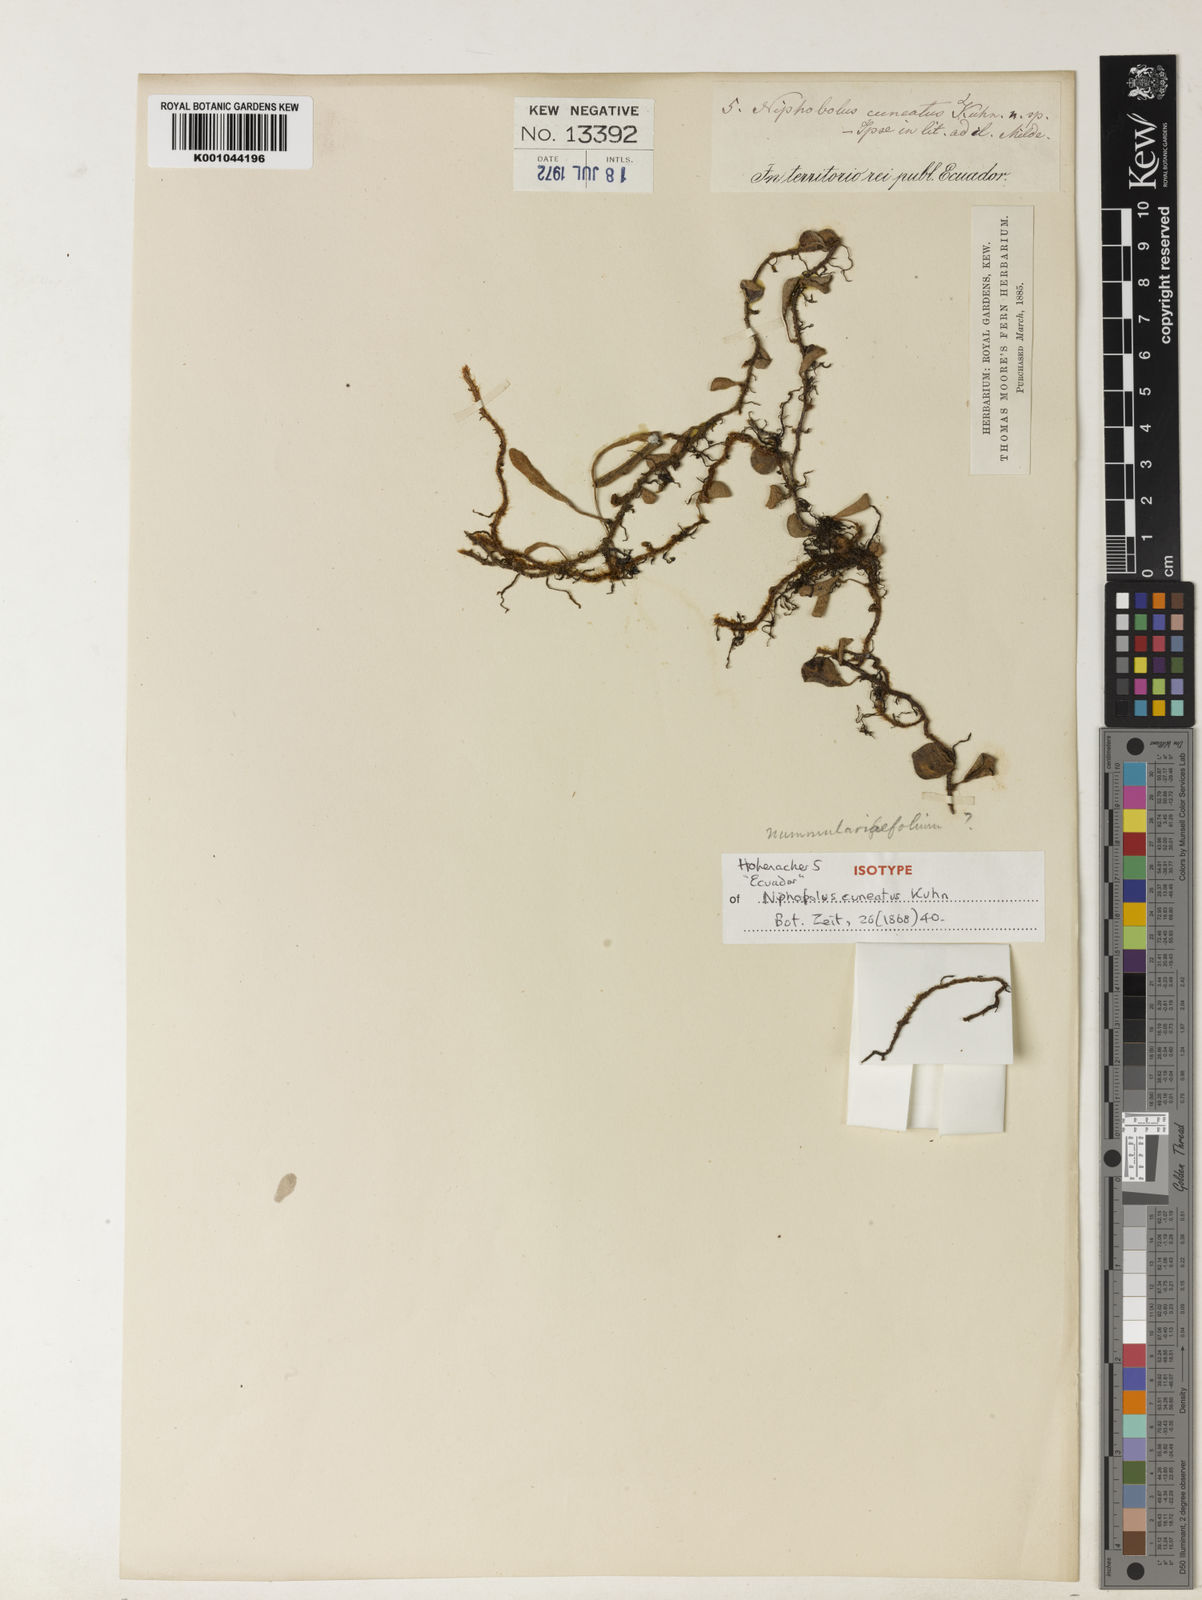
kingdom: Plantae
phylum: Tracheophyta
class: Polypodiopsida
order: Polypodiales
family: Polypodiaceae
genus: Pyrrosia
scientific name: Pyrrosia rupestris
